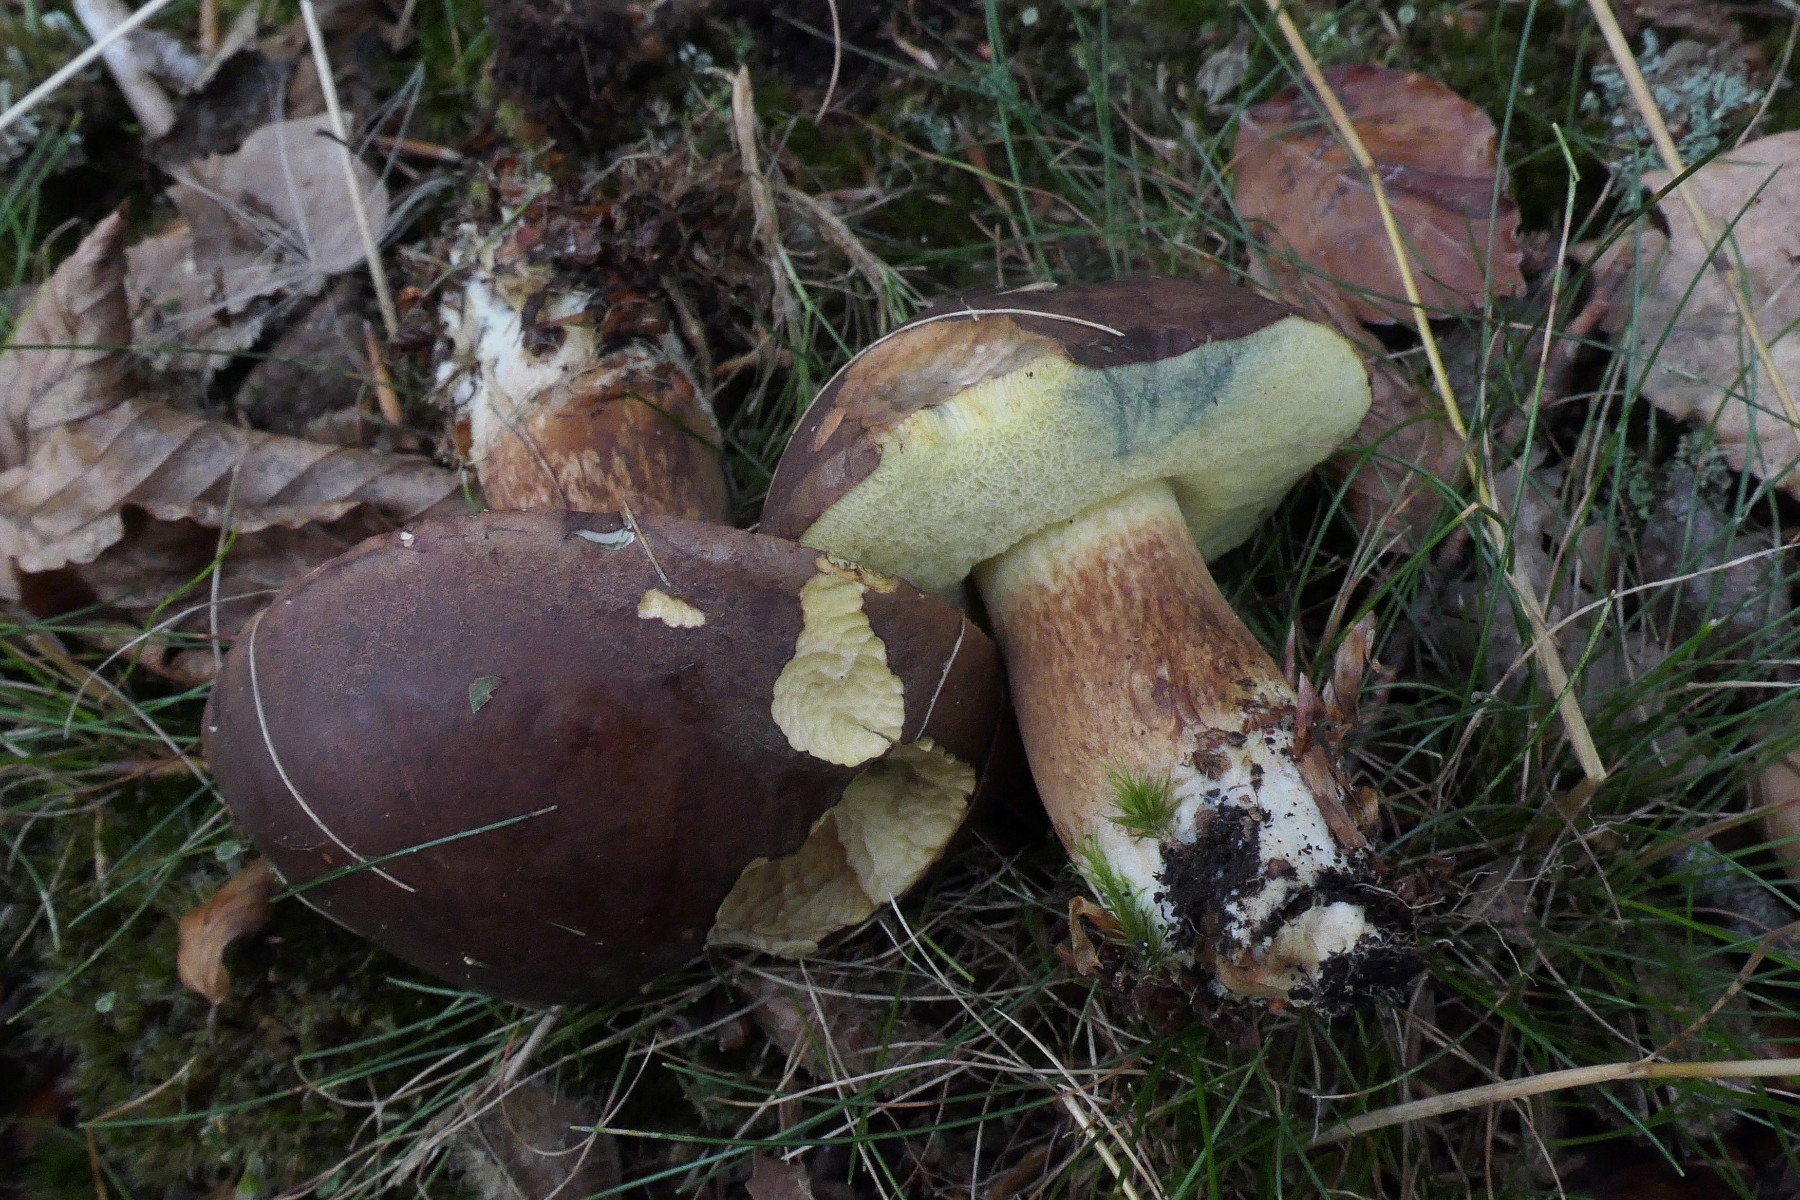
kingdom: Fungi
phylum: Basidiomycota
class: Agaricomycetes
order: Boletales
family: Boletaceae
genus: Imleria
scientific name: Imleria badia
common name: brunstokket rørhat
